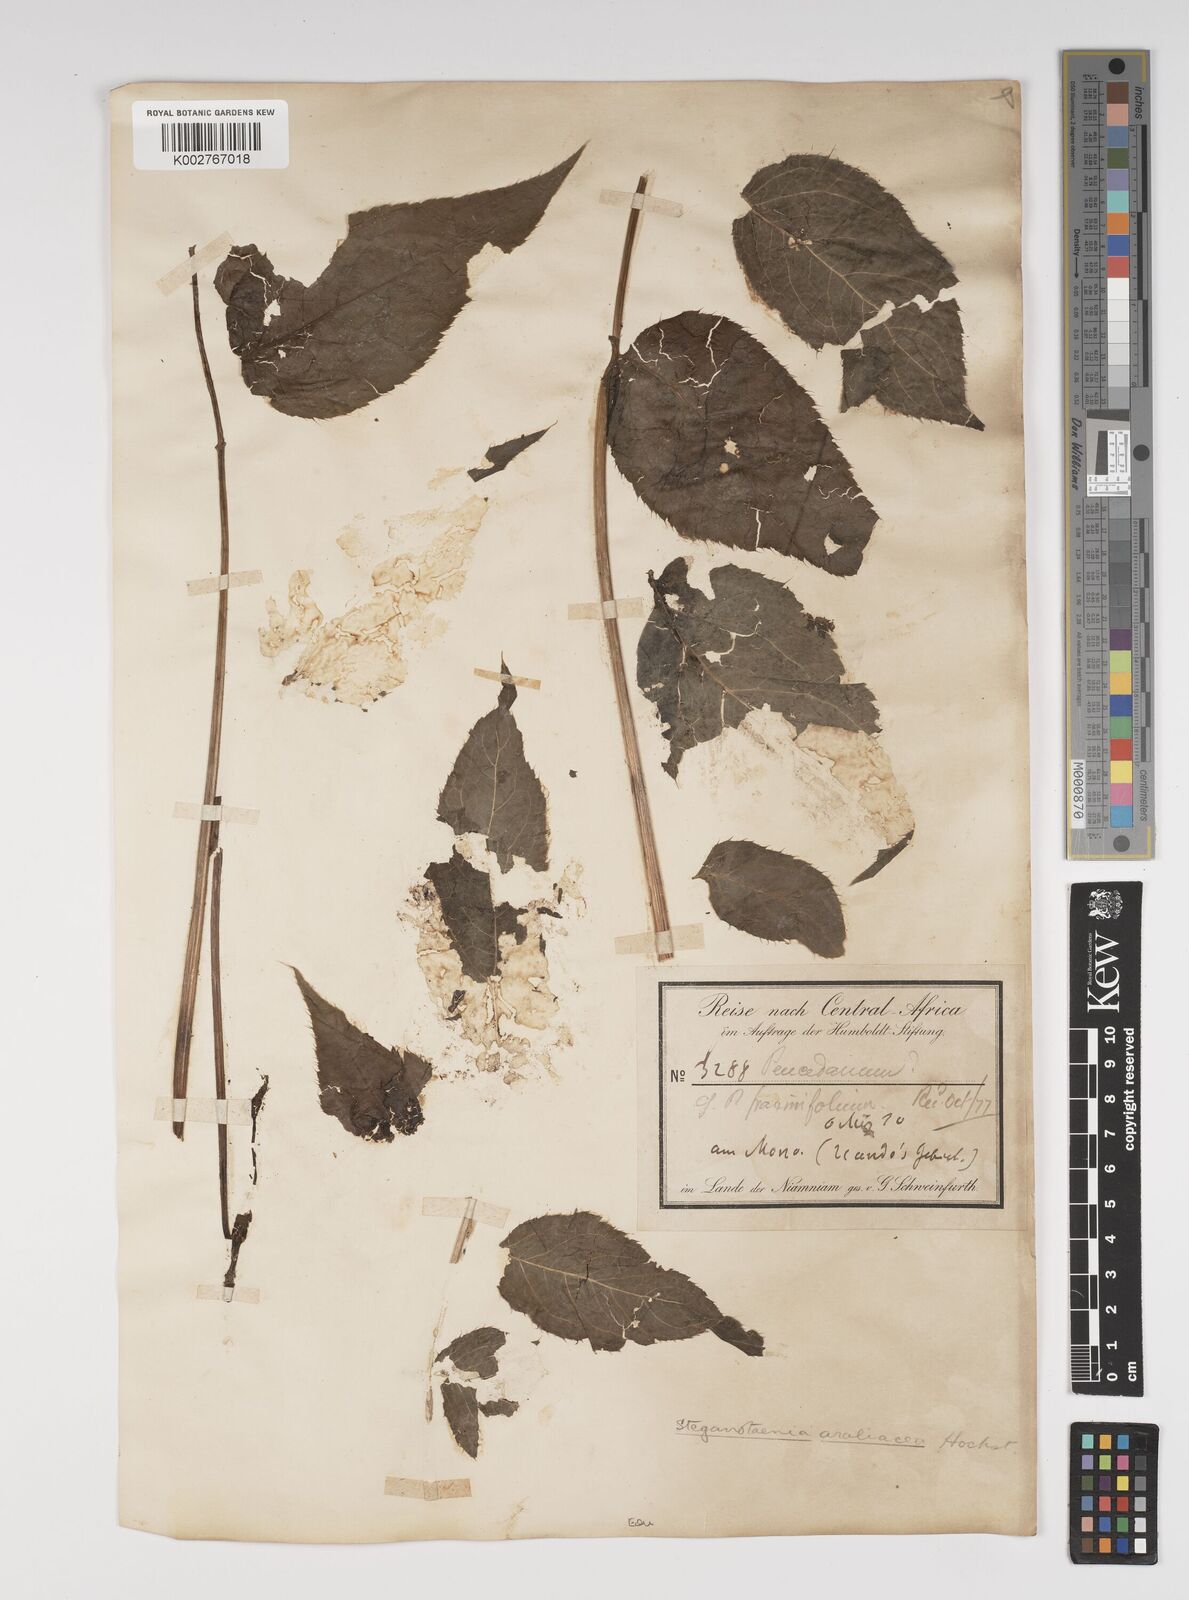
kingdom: Plantae
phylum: Tracheophyta
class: Magnoliopsida
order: Apiales
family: Apiaceae
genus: Steganotaenia
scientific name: Steganotaenia
